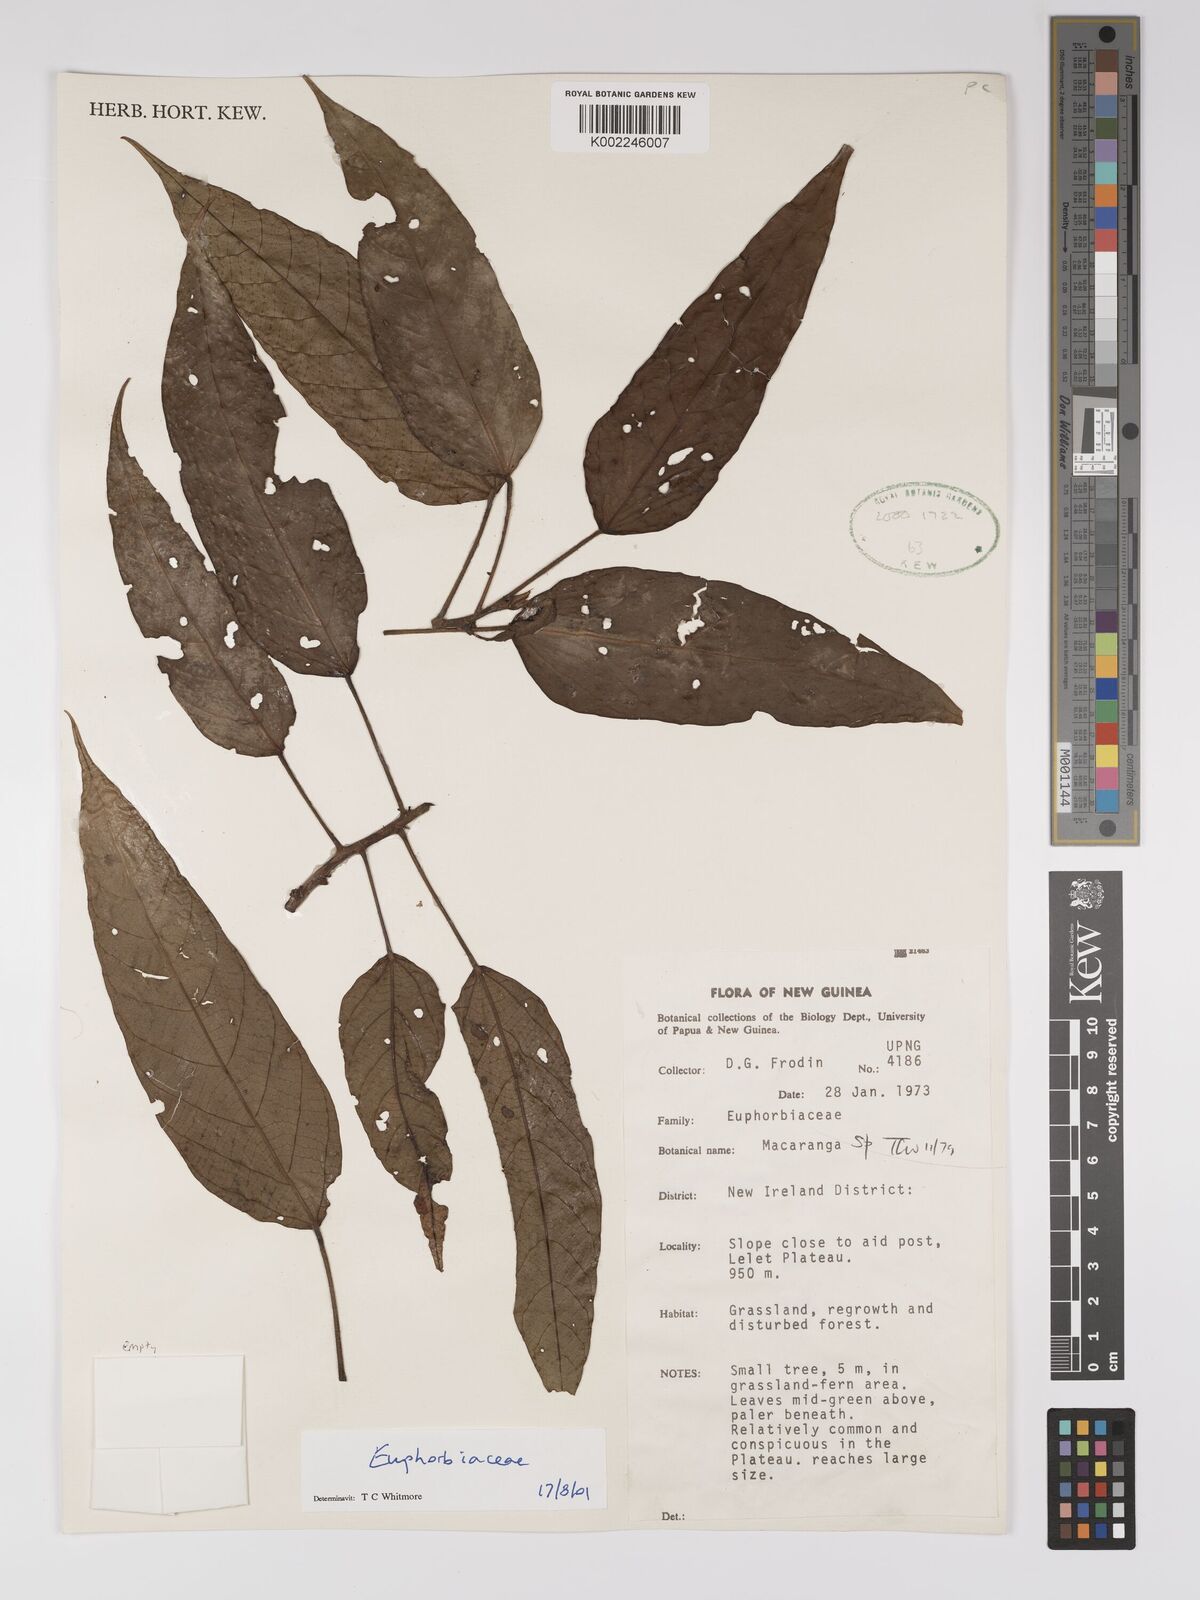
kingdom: Plantae
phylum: Tracheophyta
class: Magnoliopsida
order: Malpighiales
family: Euphorbiaceae
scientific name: Euphorbiaceae
